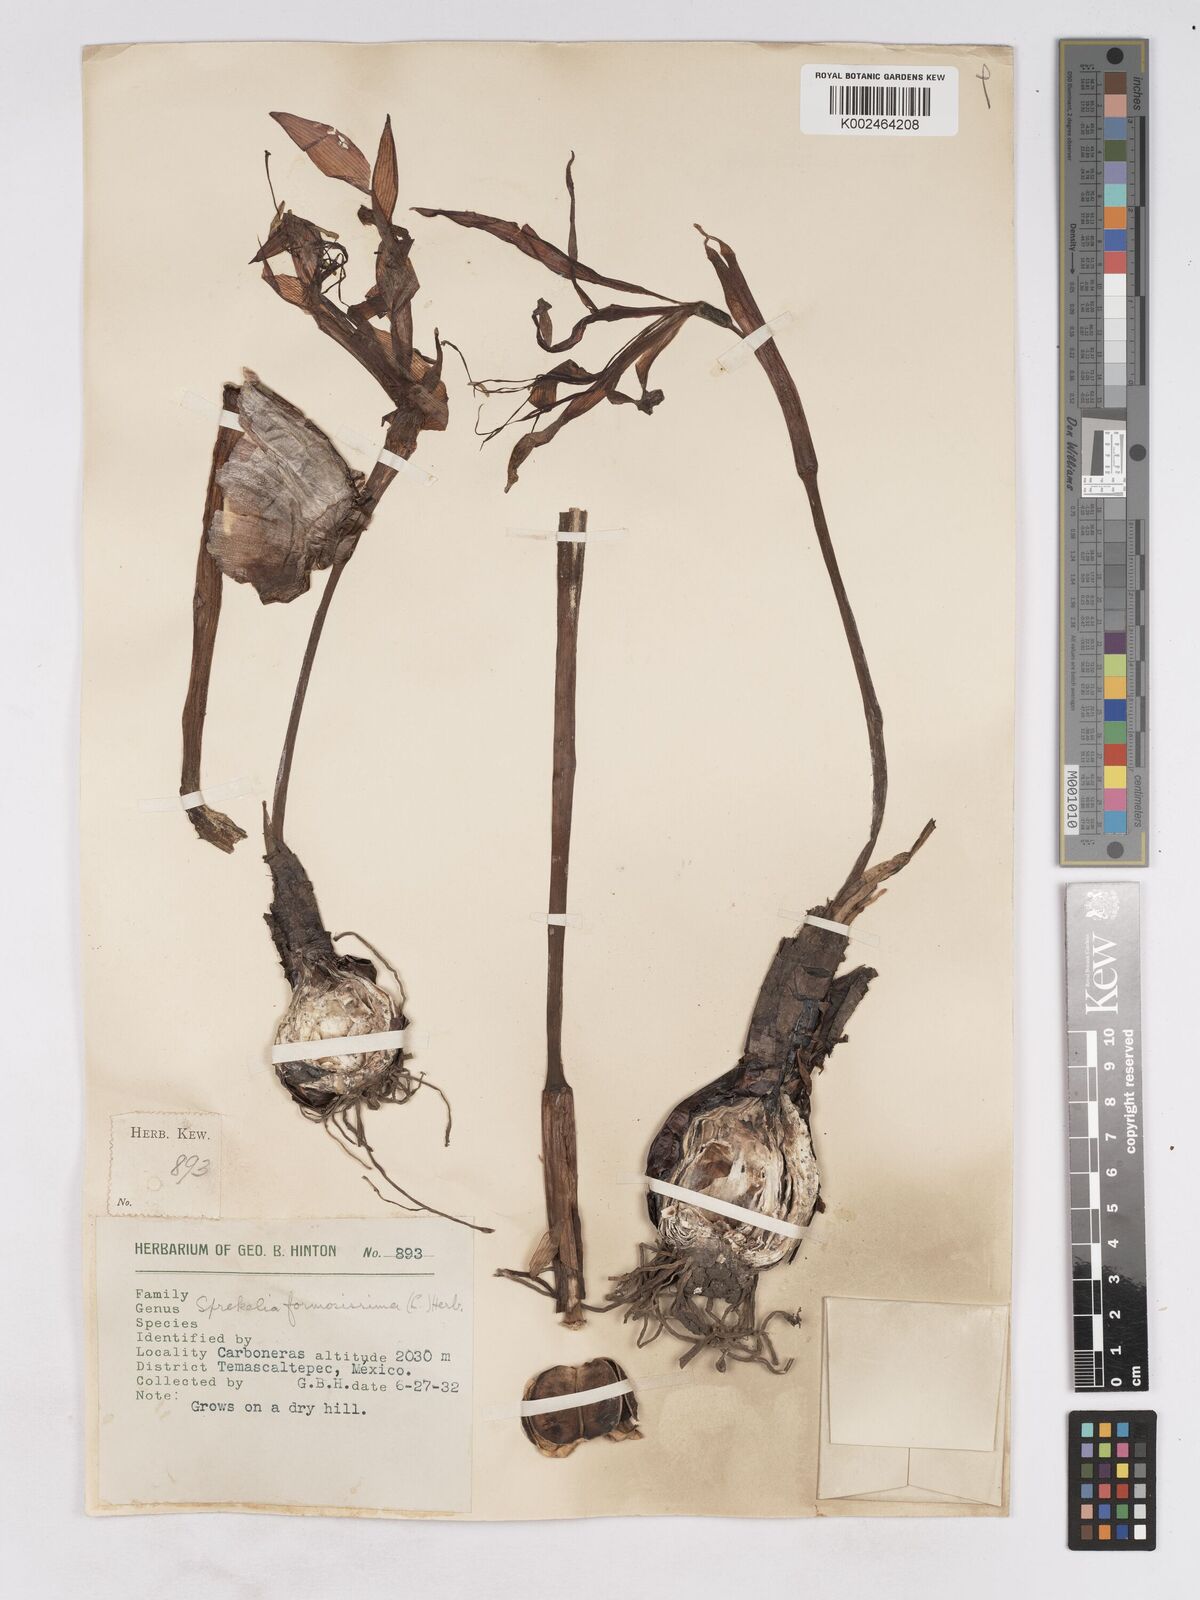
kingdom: Plantae
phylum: Tracheophyta
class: Liliopsida
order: Asparagales
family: Amaryllidaceae
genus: Sprekelia
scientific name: Sprekelia formosissima
